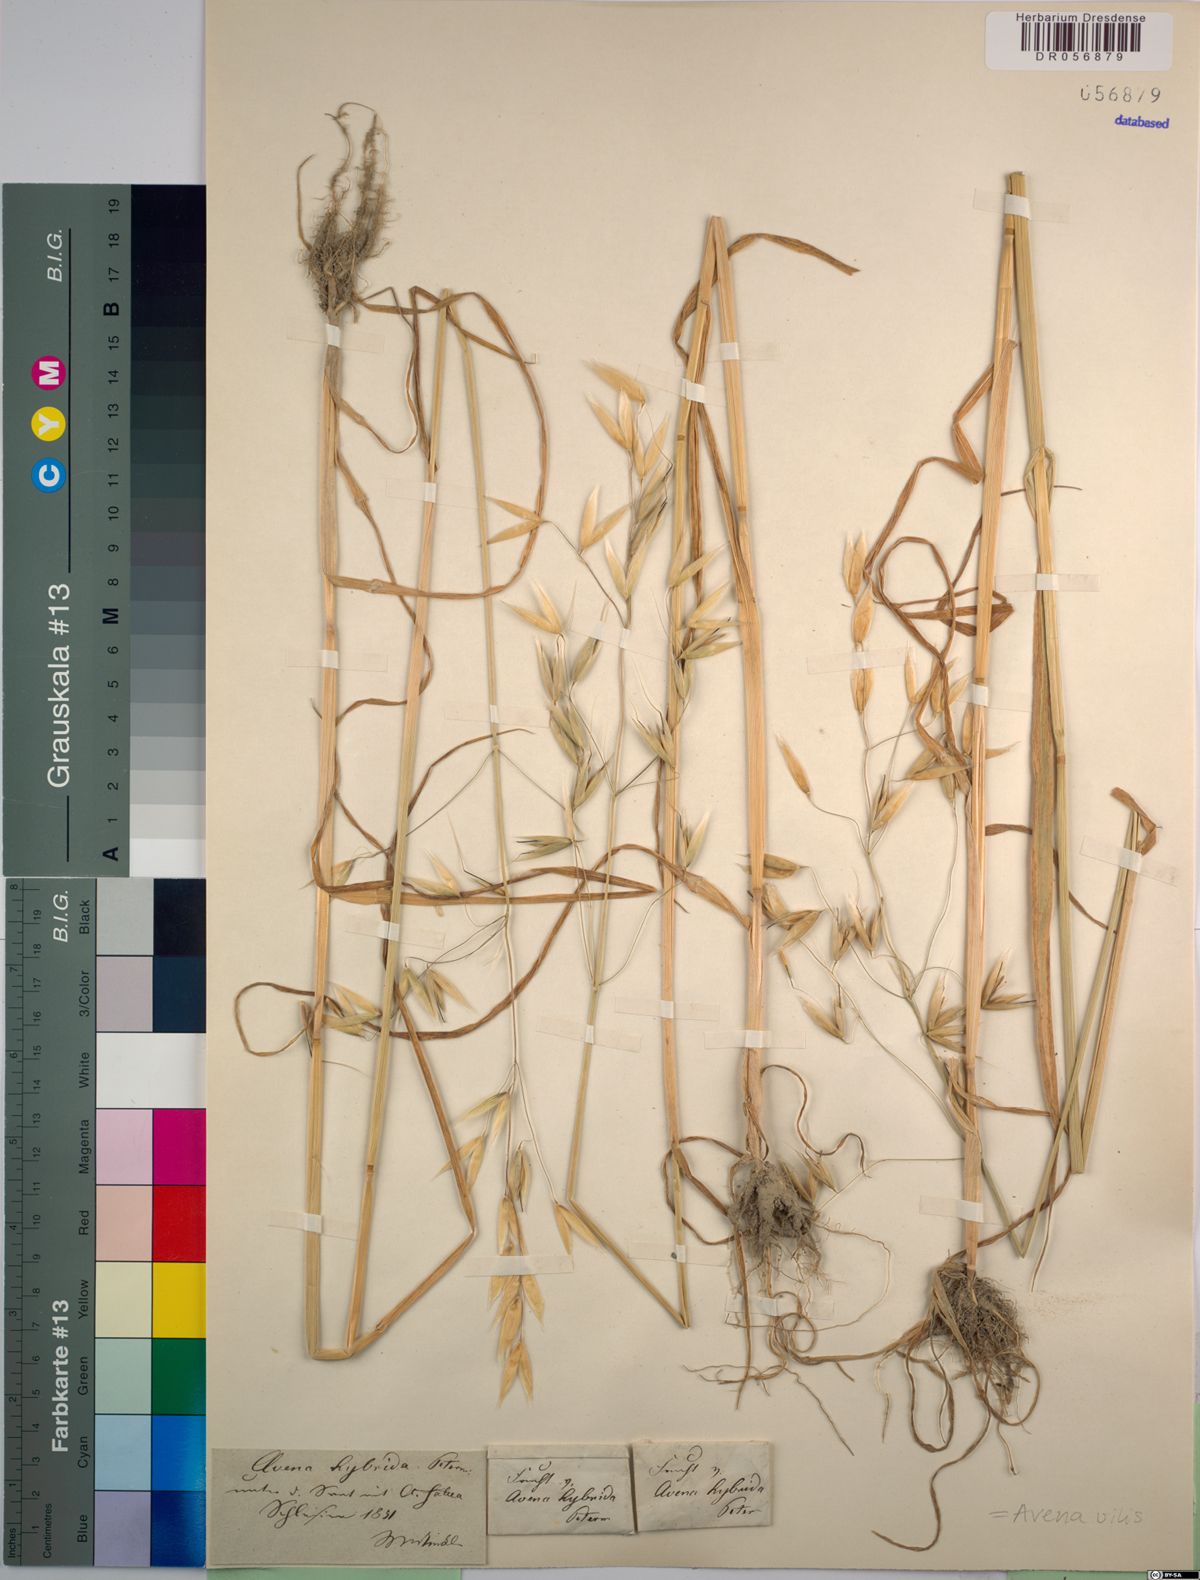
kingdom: Plantae
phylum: Tracheophyta
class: Liliopsida
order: Poales
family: Poaceae
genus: Avena
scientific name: Avena vilis
